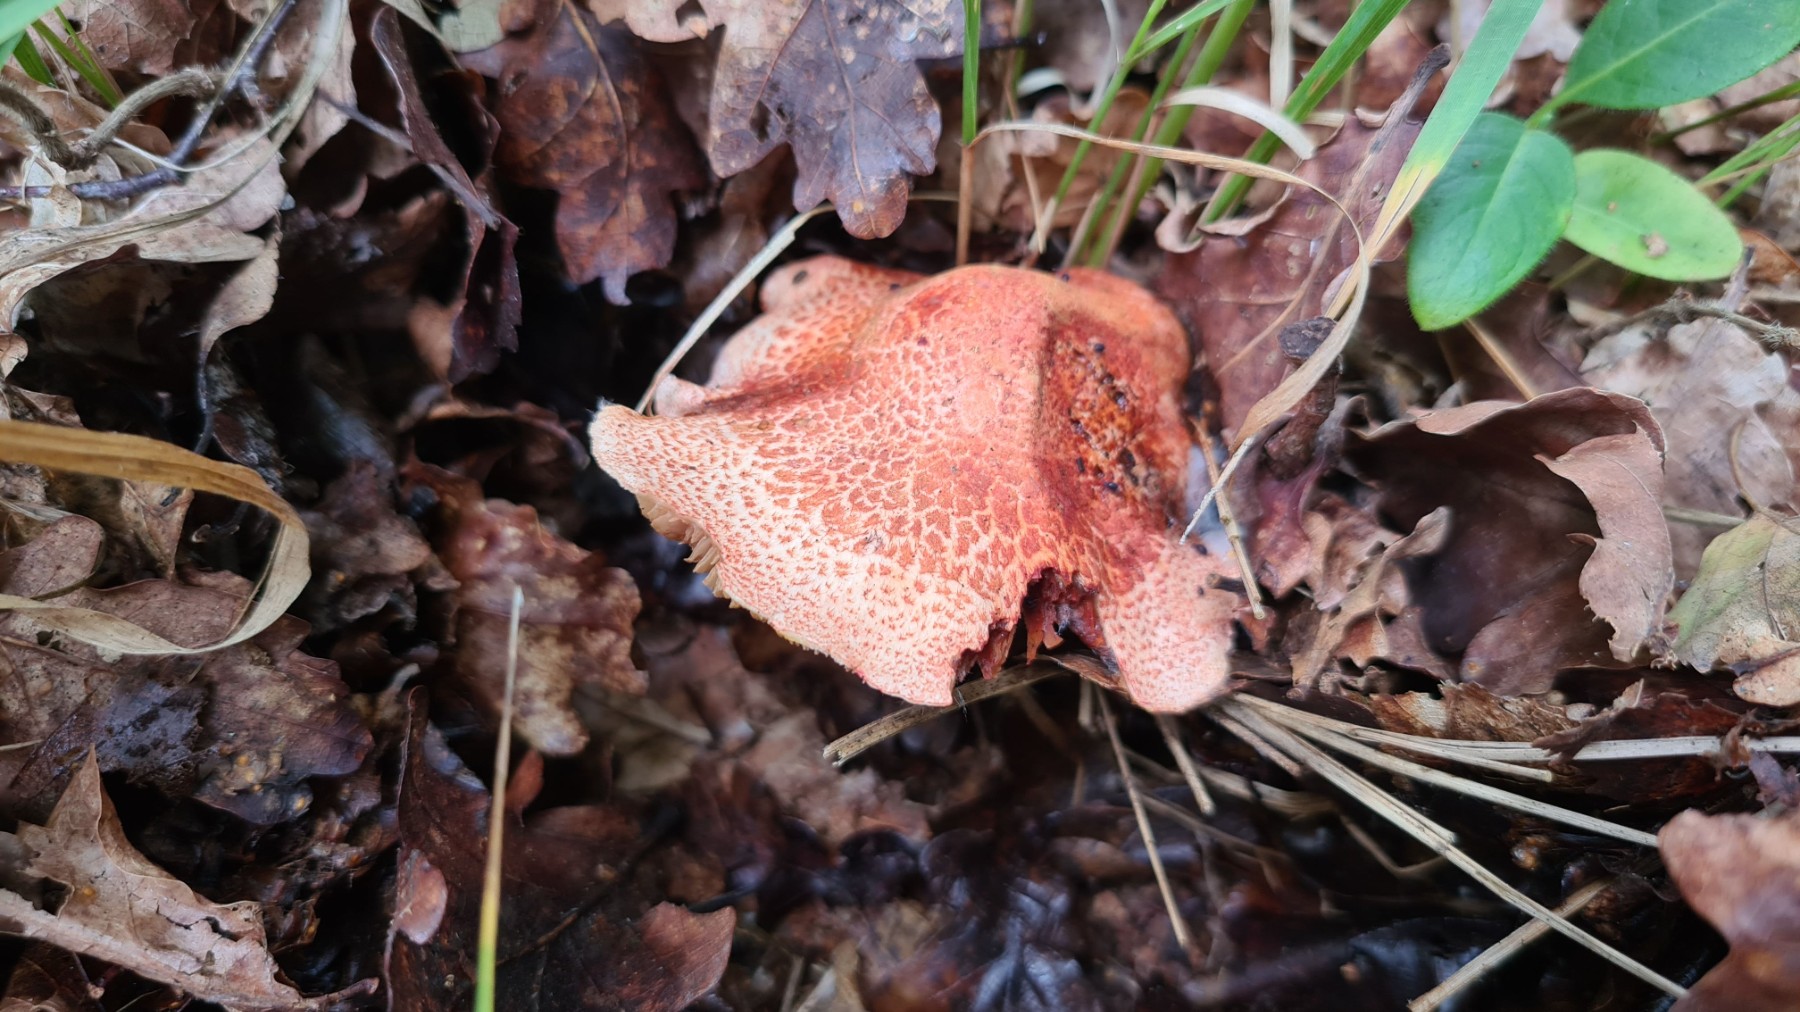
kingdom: Fungi
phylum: Basidiomycota
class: Agaricomycetes
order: Agaricales
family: Cortinariaceae
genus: Cortinarius
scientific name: Cortinarius bolaris
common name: cinnoberskællet slørhat
